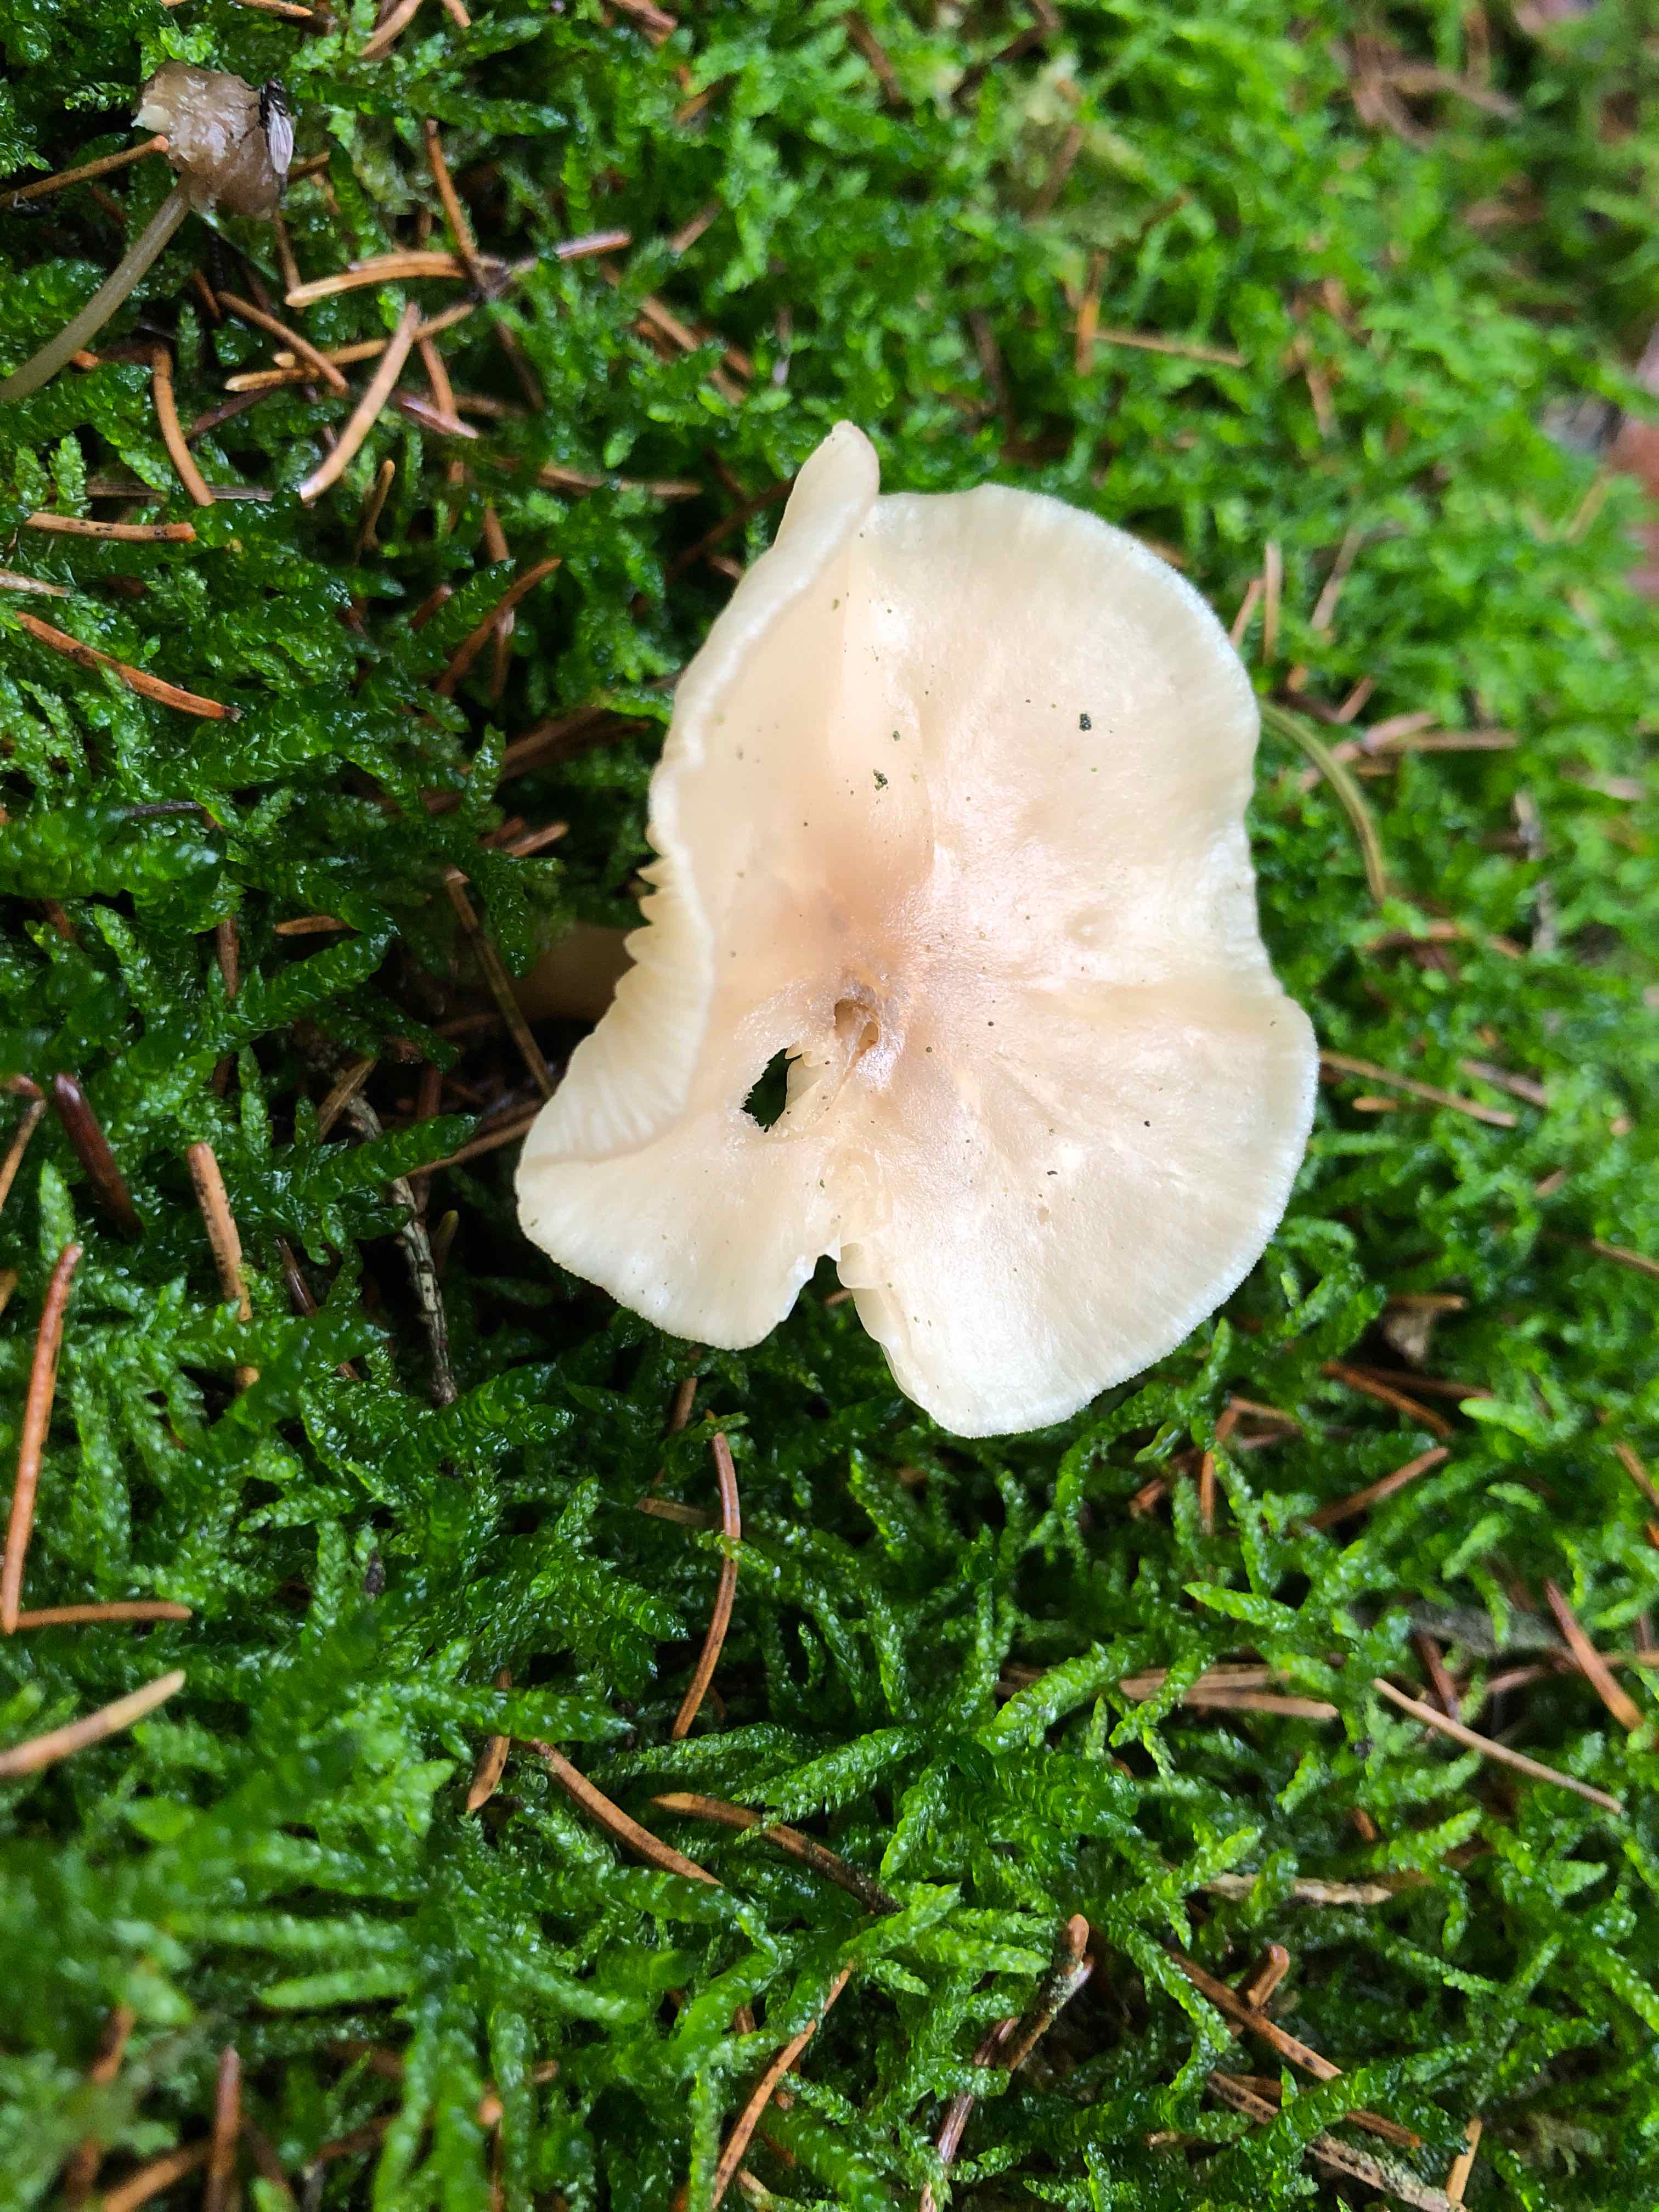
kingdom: Fungi
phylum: Basidiomycota
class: Agaricomycetes
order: Agaricales
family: Tricholomataceae
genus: Clitocybe
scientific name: Clitocybe fragrans
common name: vellugtende tragthat
